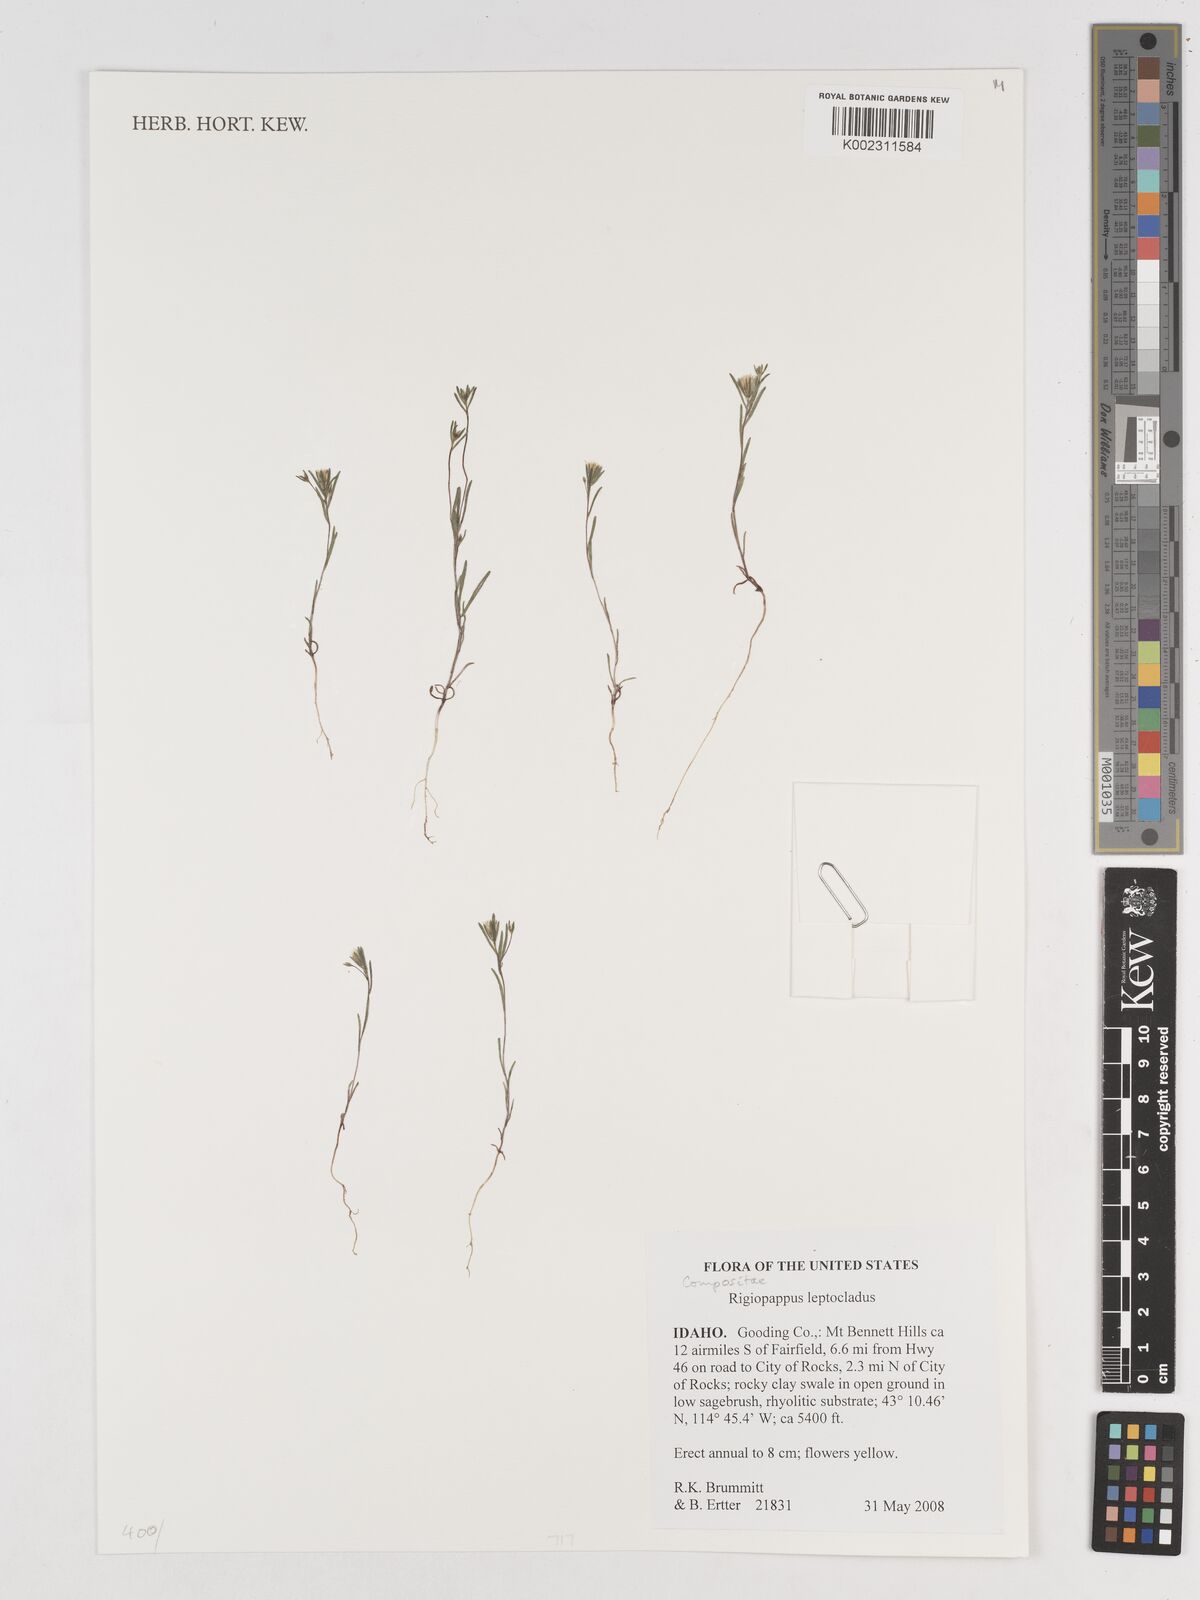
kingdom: Plantae
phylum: Tracheophyta
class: Magnoliopsida
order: Asterales
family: Asteraceae
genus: Rigiopappus
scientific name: Rigiopappus leptocladus
